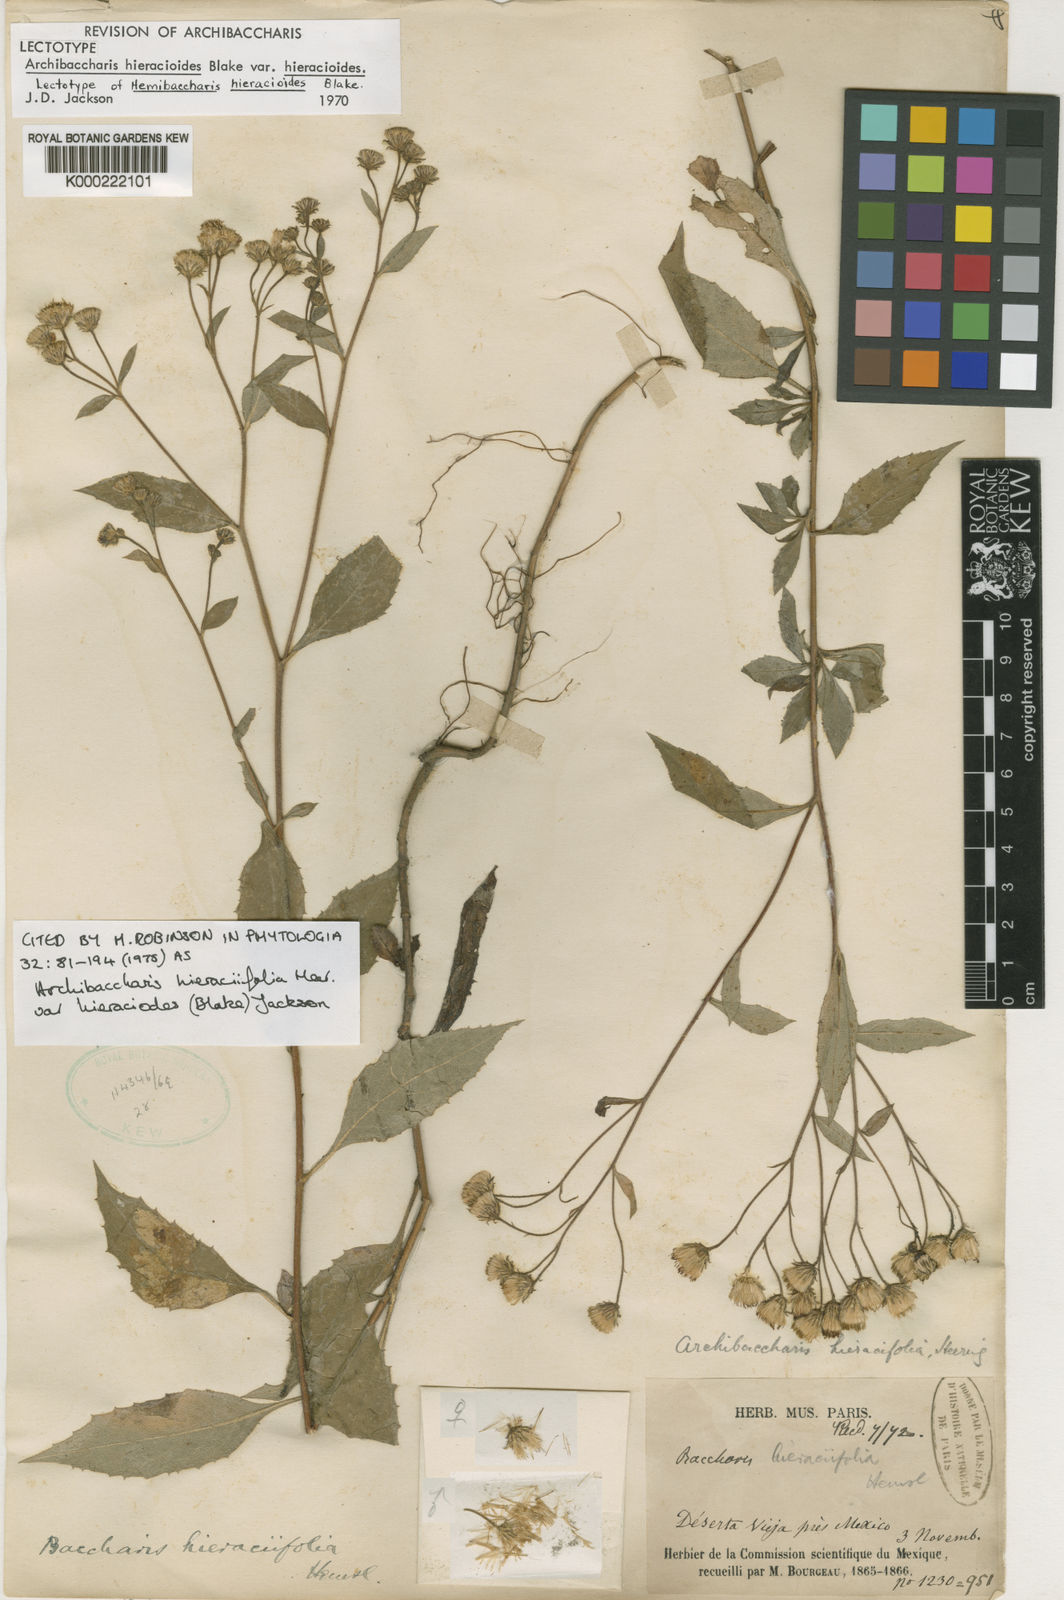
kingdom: Plantae
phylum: Tracheophyta
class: Magnoliopsida
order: Asterales
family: Asteraceae
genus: Archibaccharis
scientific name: Archibaccharis hieracioides
